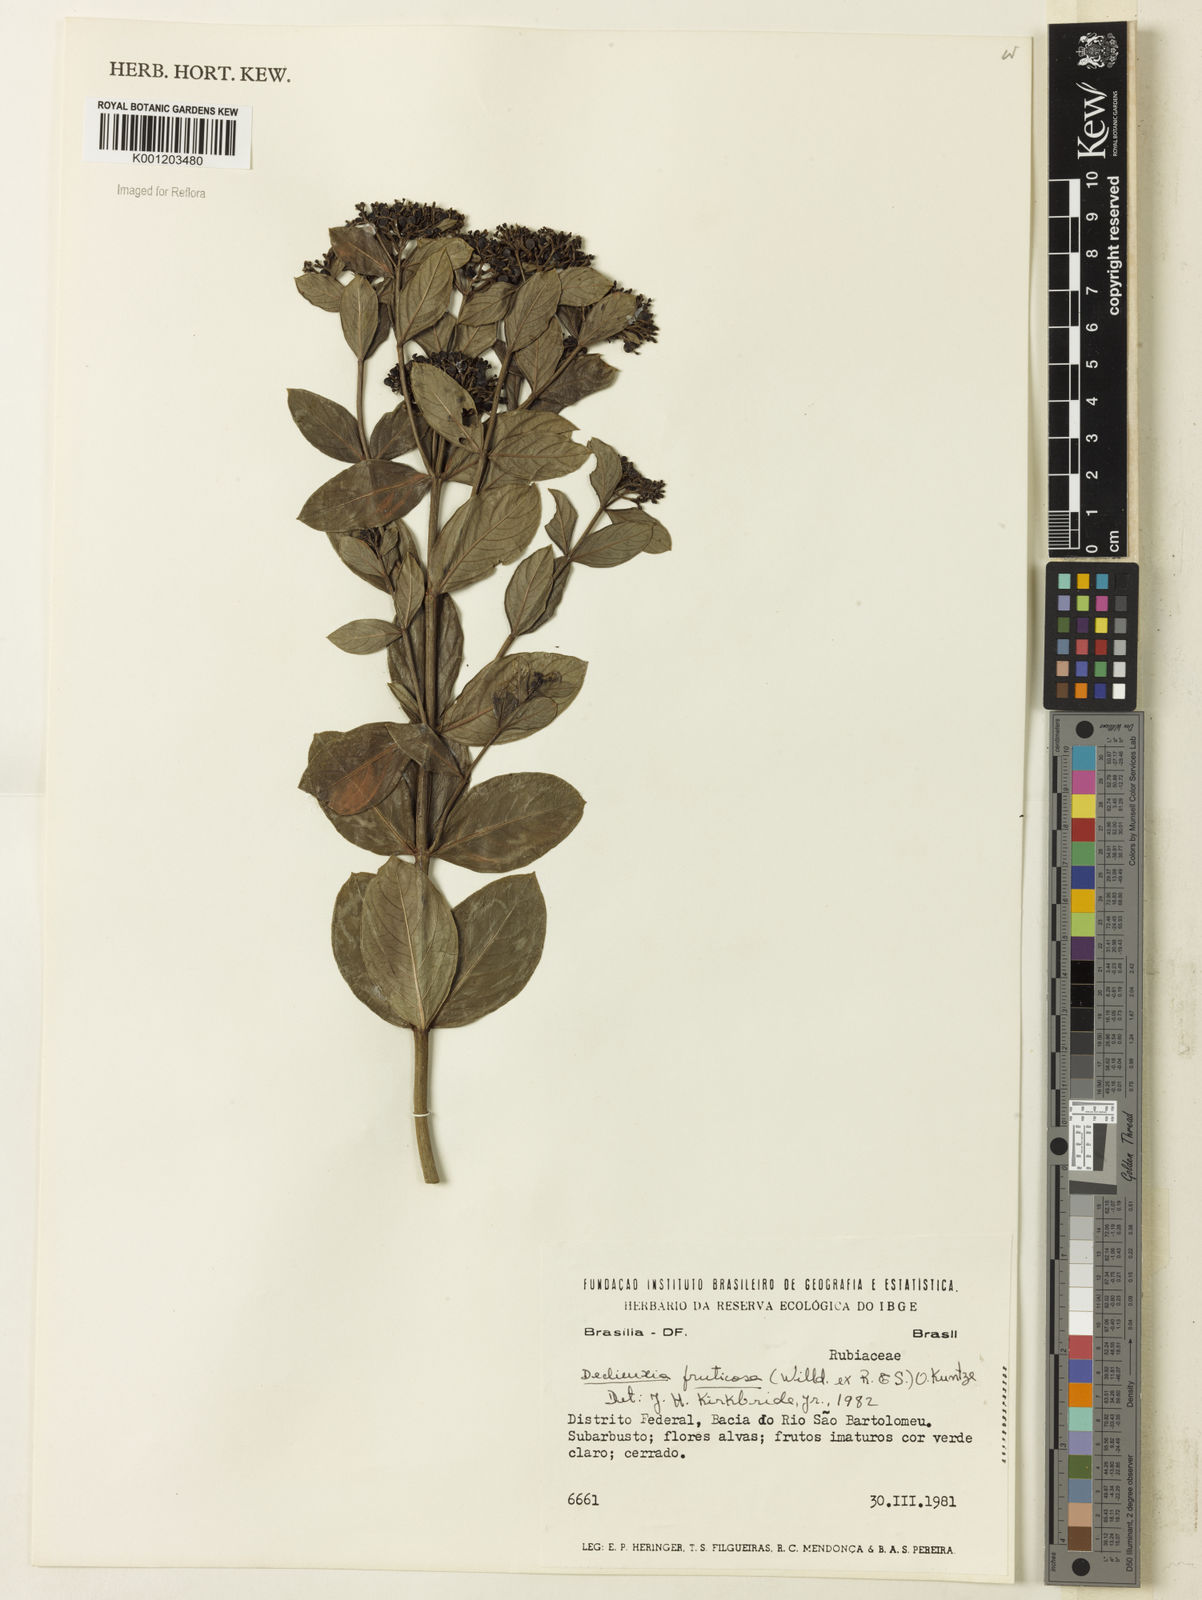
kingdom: Plantae
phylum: Tracheophyta
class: Magnoliopsida
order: Gentianales
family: Rubiaceae
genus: Declieuxia
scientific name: Declieuxia fruticosa
